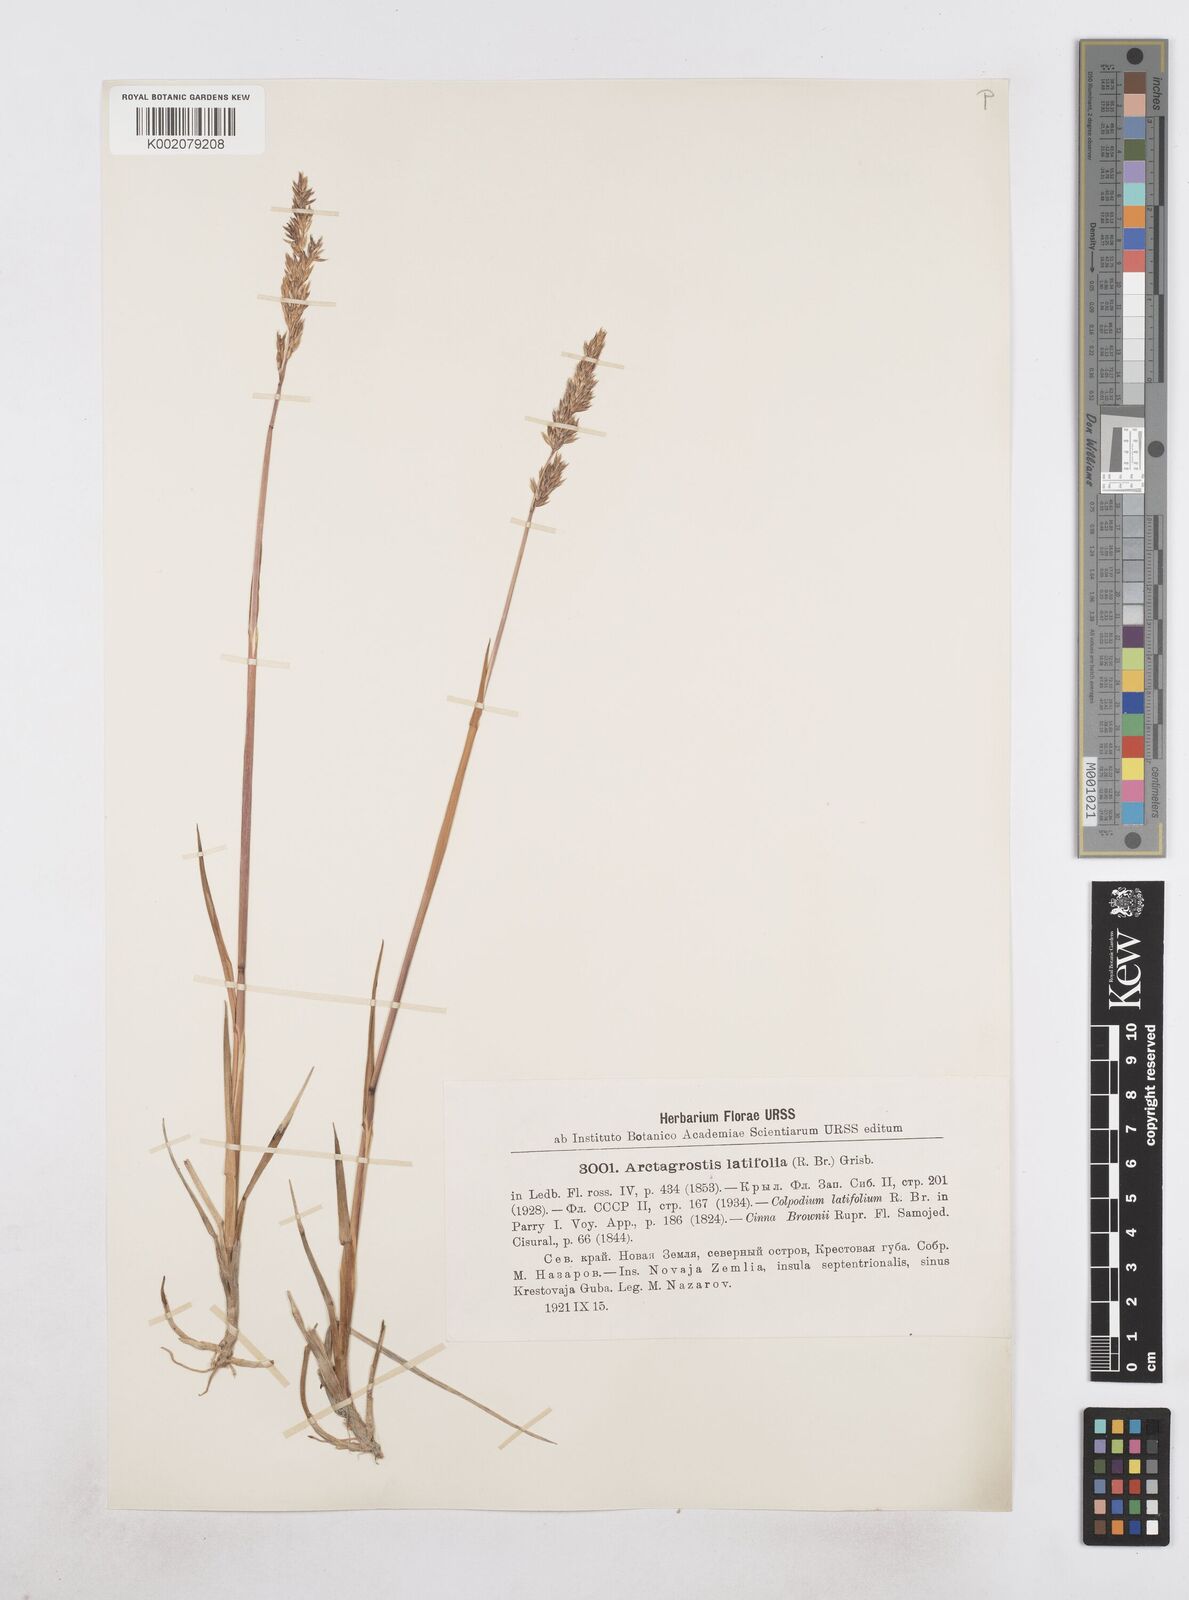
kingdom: Plantae
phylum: Tracheophyta
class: Liliopsida
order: Poales
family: Poaceae
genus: Arctagrostis
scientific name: Arctagrostis latifolia
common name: Arctic grass
